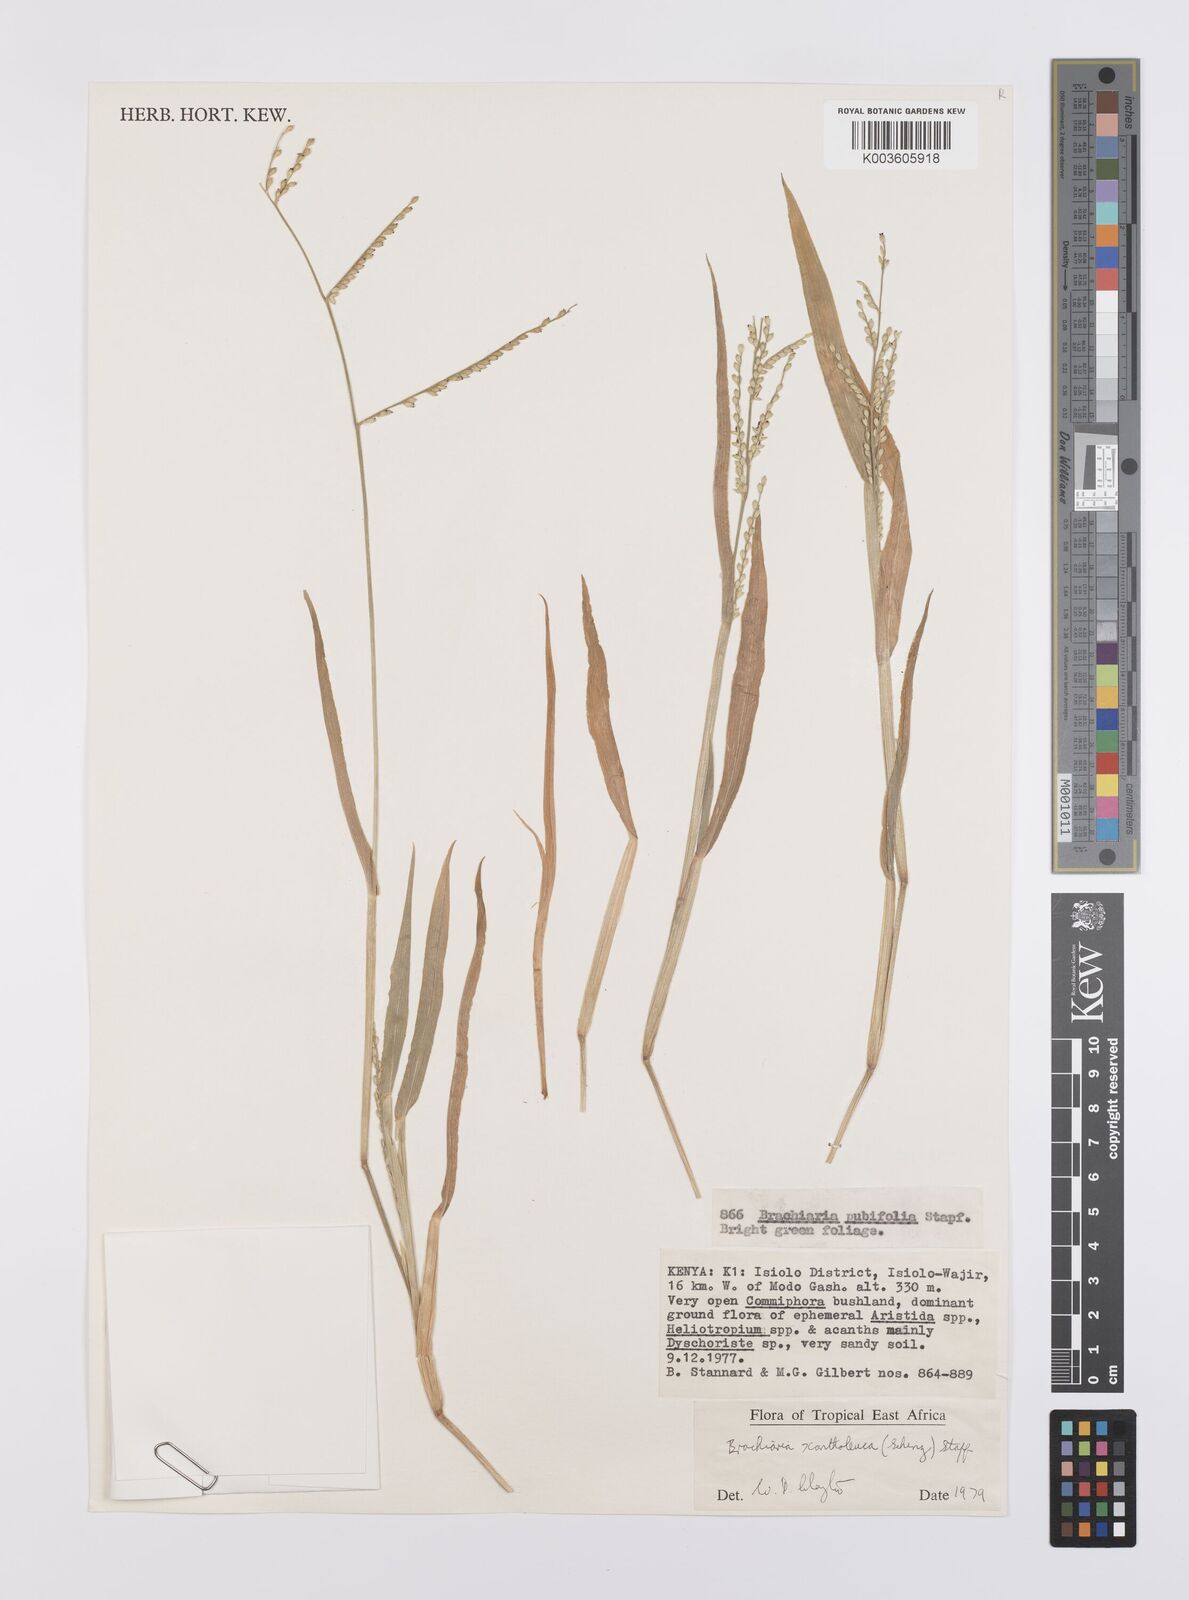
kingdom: Plantae
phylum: Tracheophyta
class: Liliopsida
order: Poales
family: Poaceae
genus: Urochloa
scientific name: Urochloa xantholeuca
